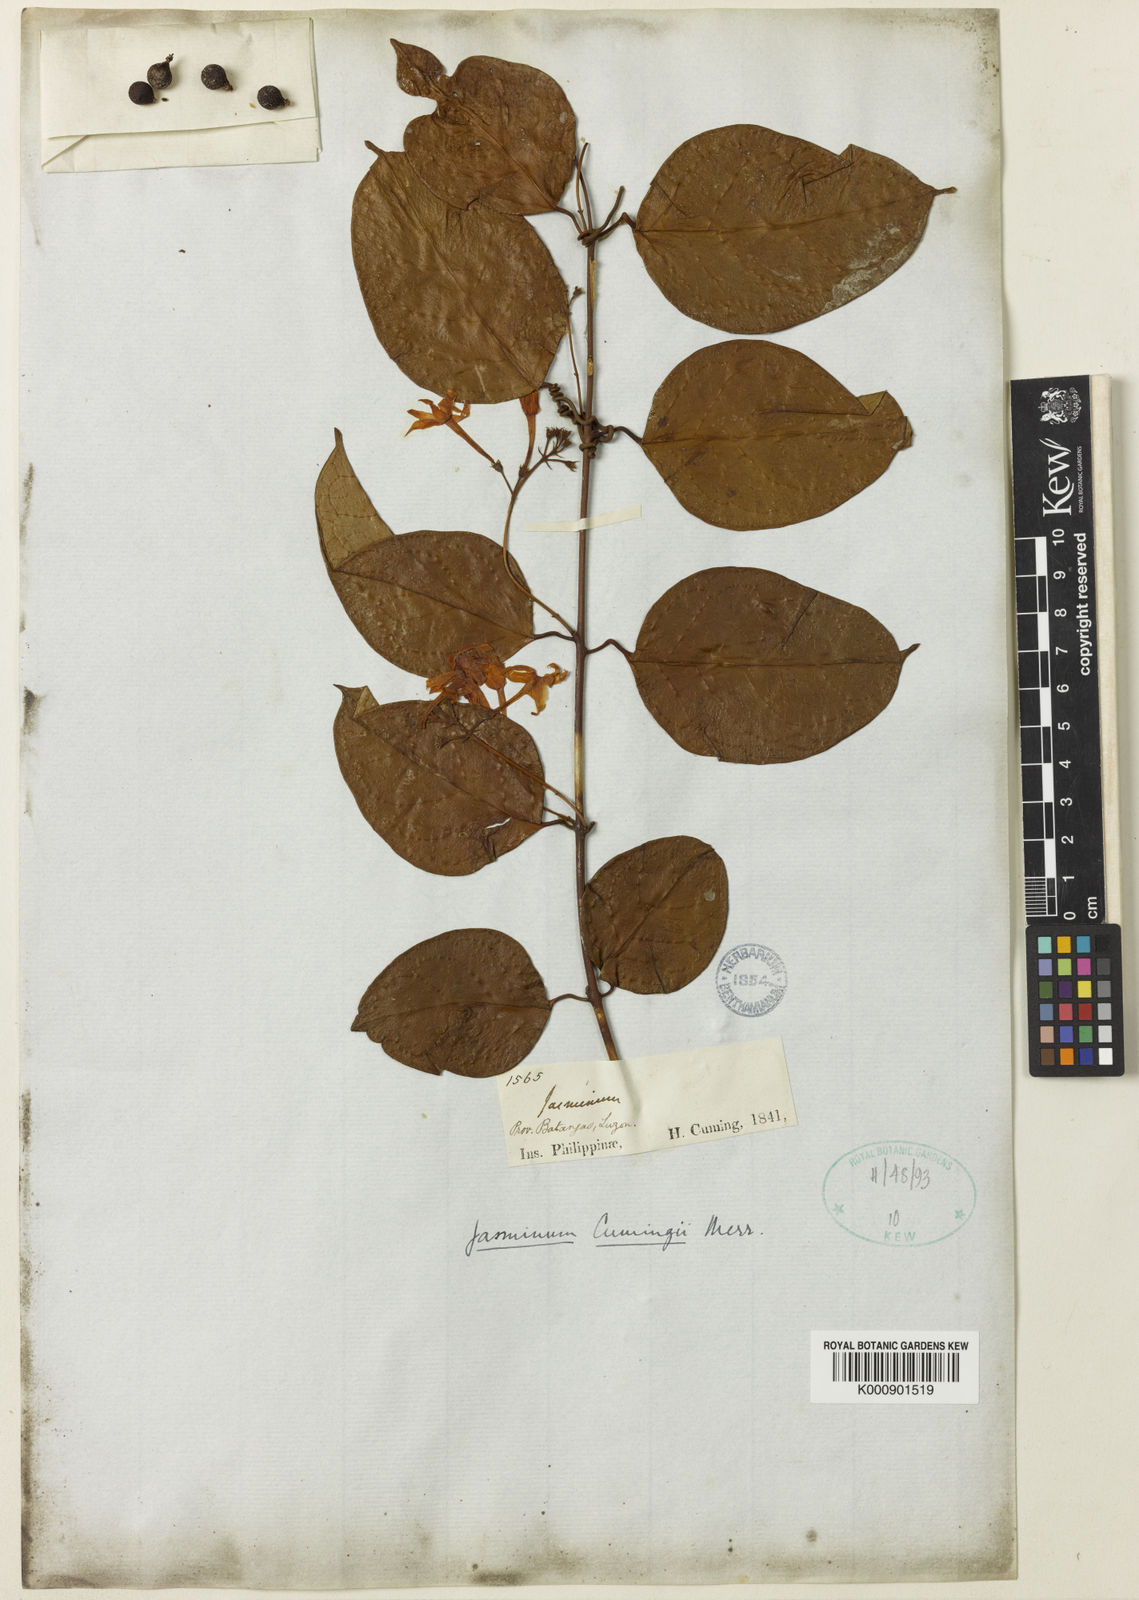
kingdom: Plantae
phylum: Tracheophyta
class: Magnoliopsida
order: Lamiales
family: Oleaceae
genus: Jasminum
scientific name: Jasminum cumingii
